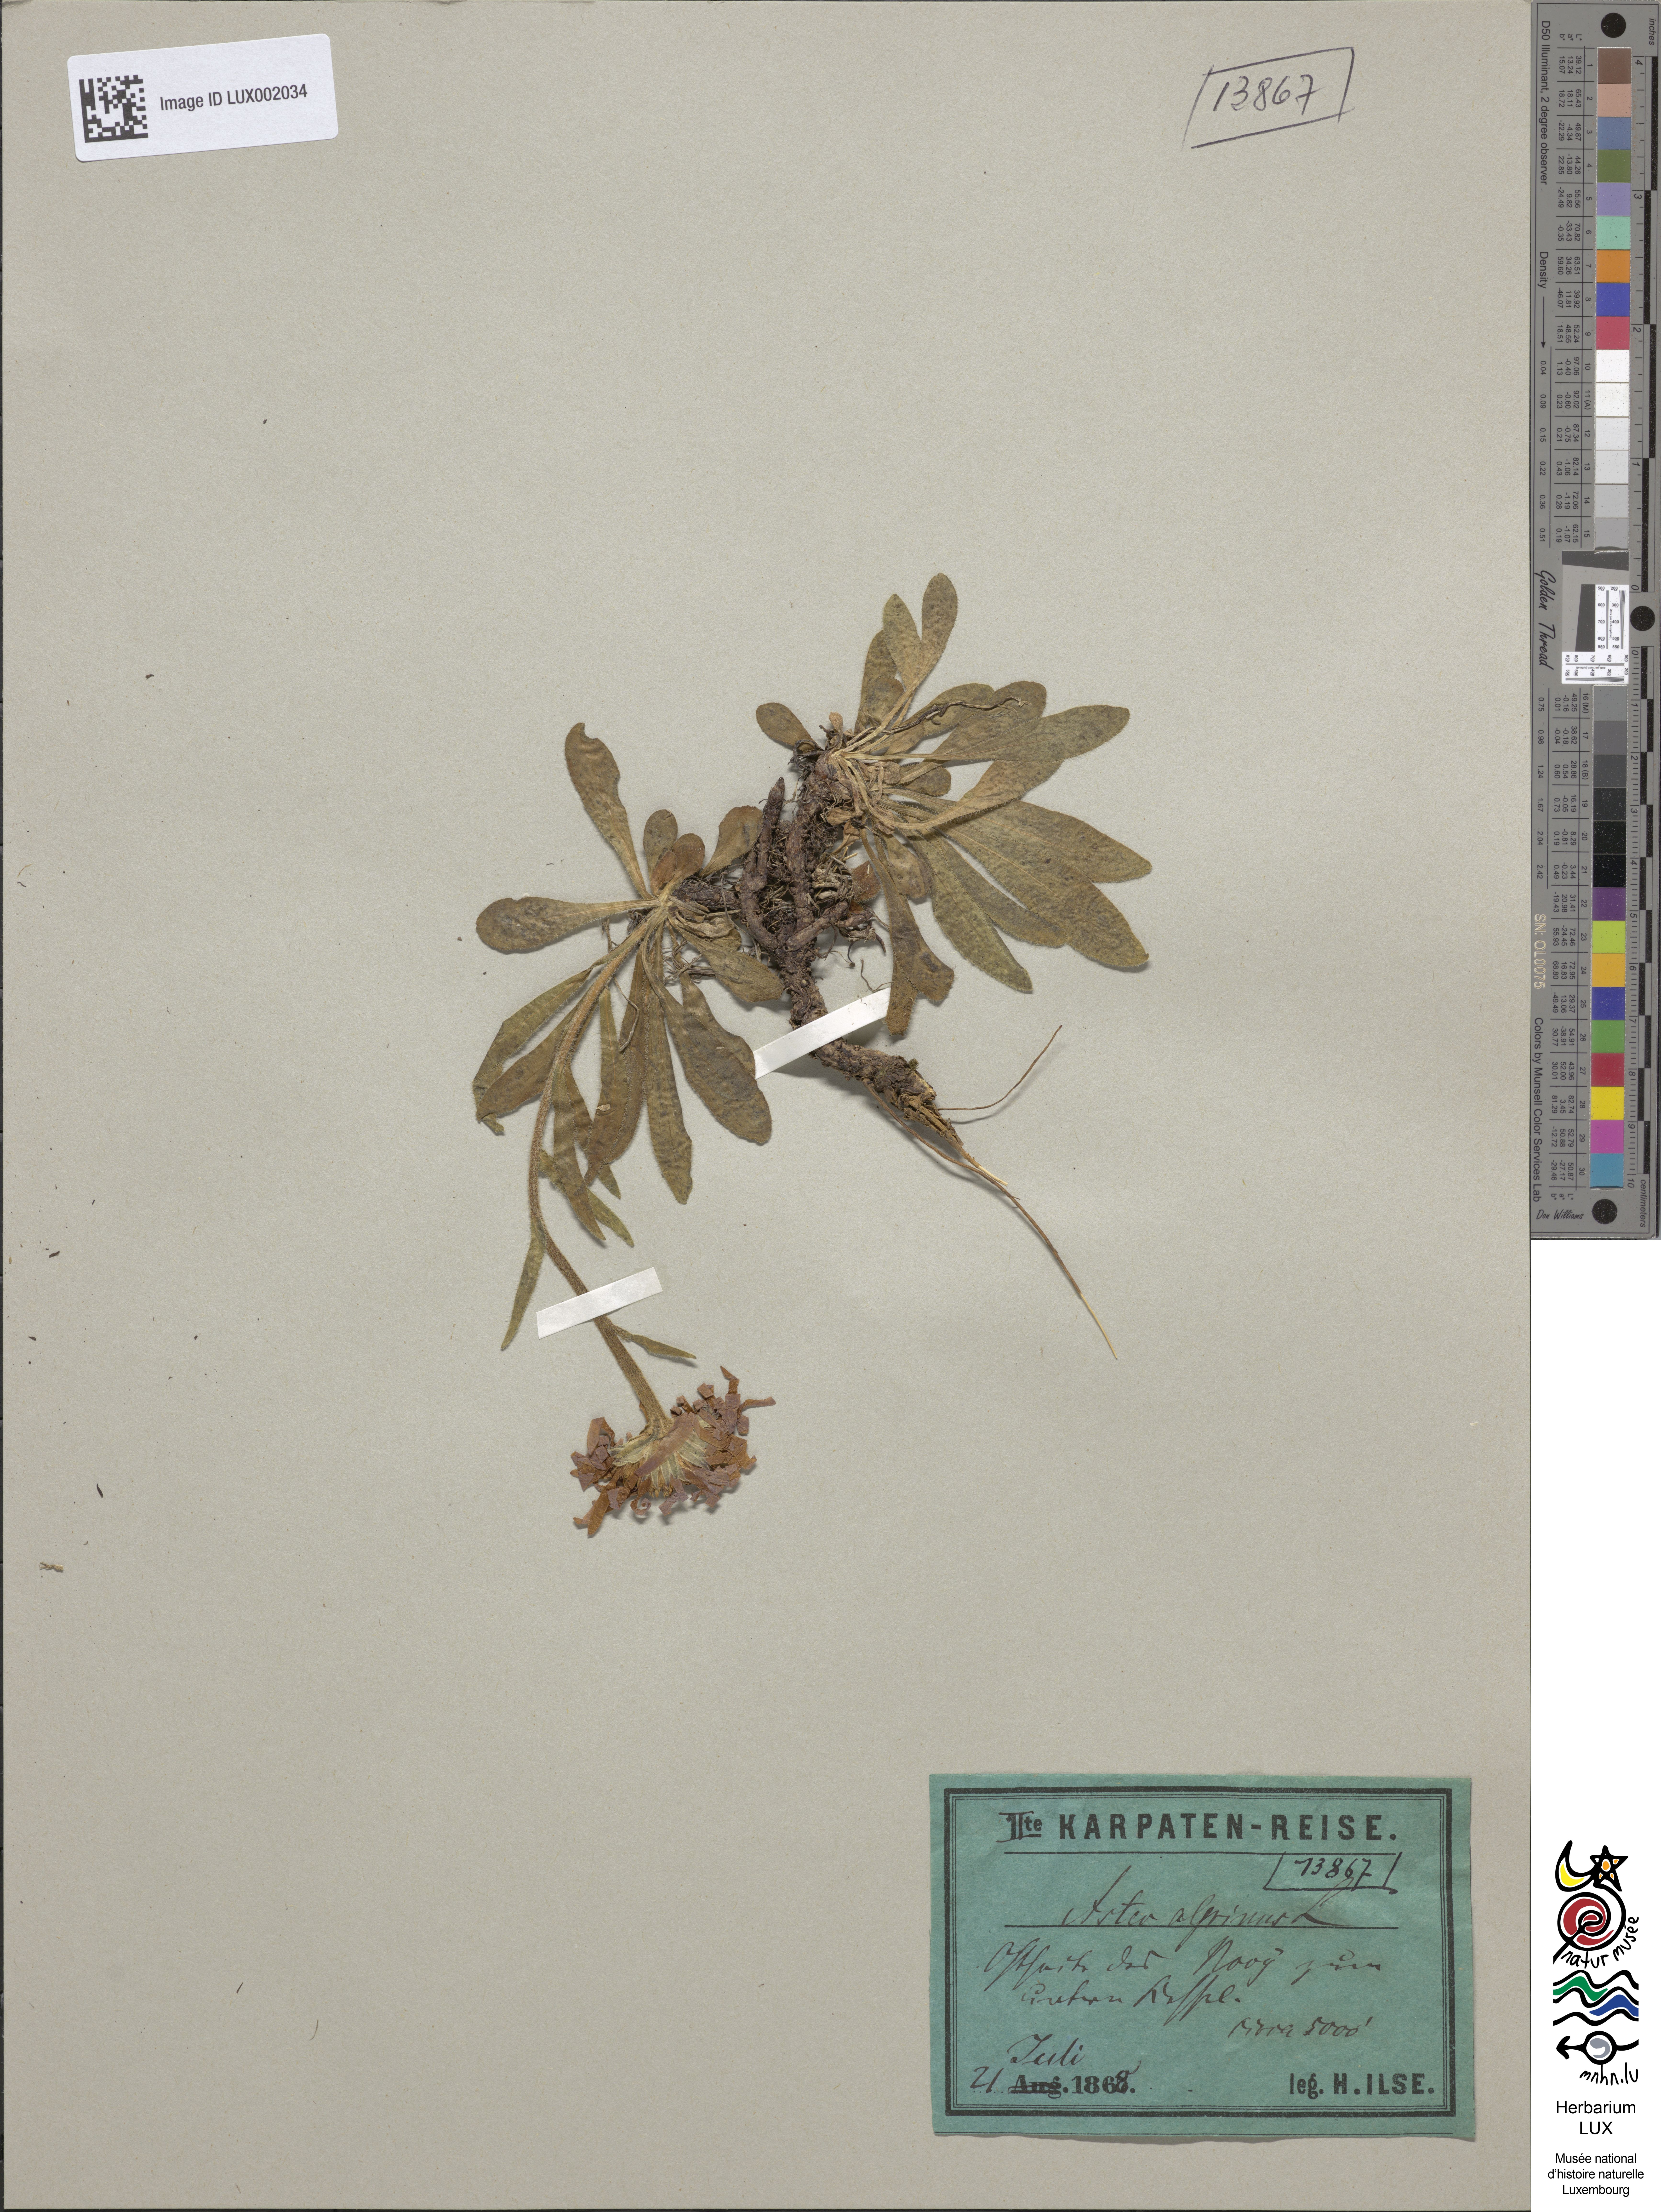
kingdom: Plantae
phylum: Tracheophyta
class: Magnoliopsida
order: Asterales
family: Asteraceae
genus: Aster
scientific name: Aster alpinus
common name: Alpine aster
